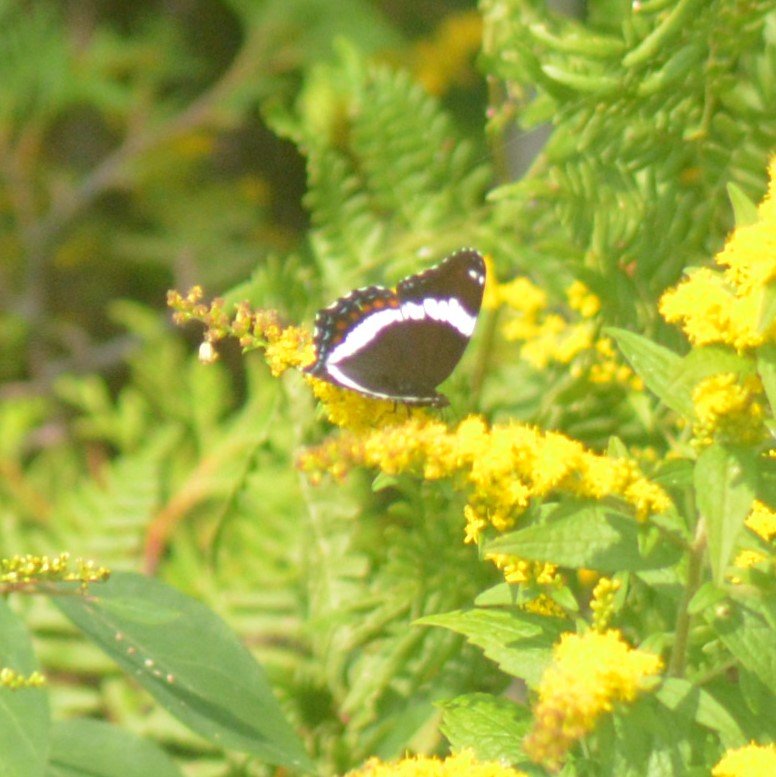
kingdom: Animalia
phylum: Arthropoda
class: Insecta
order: Lepidoptera
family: Nymphalidae
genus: Limenitis
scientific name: Limenitis arthemis
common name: Red-spotted Admiral
